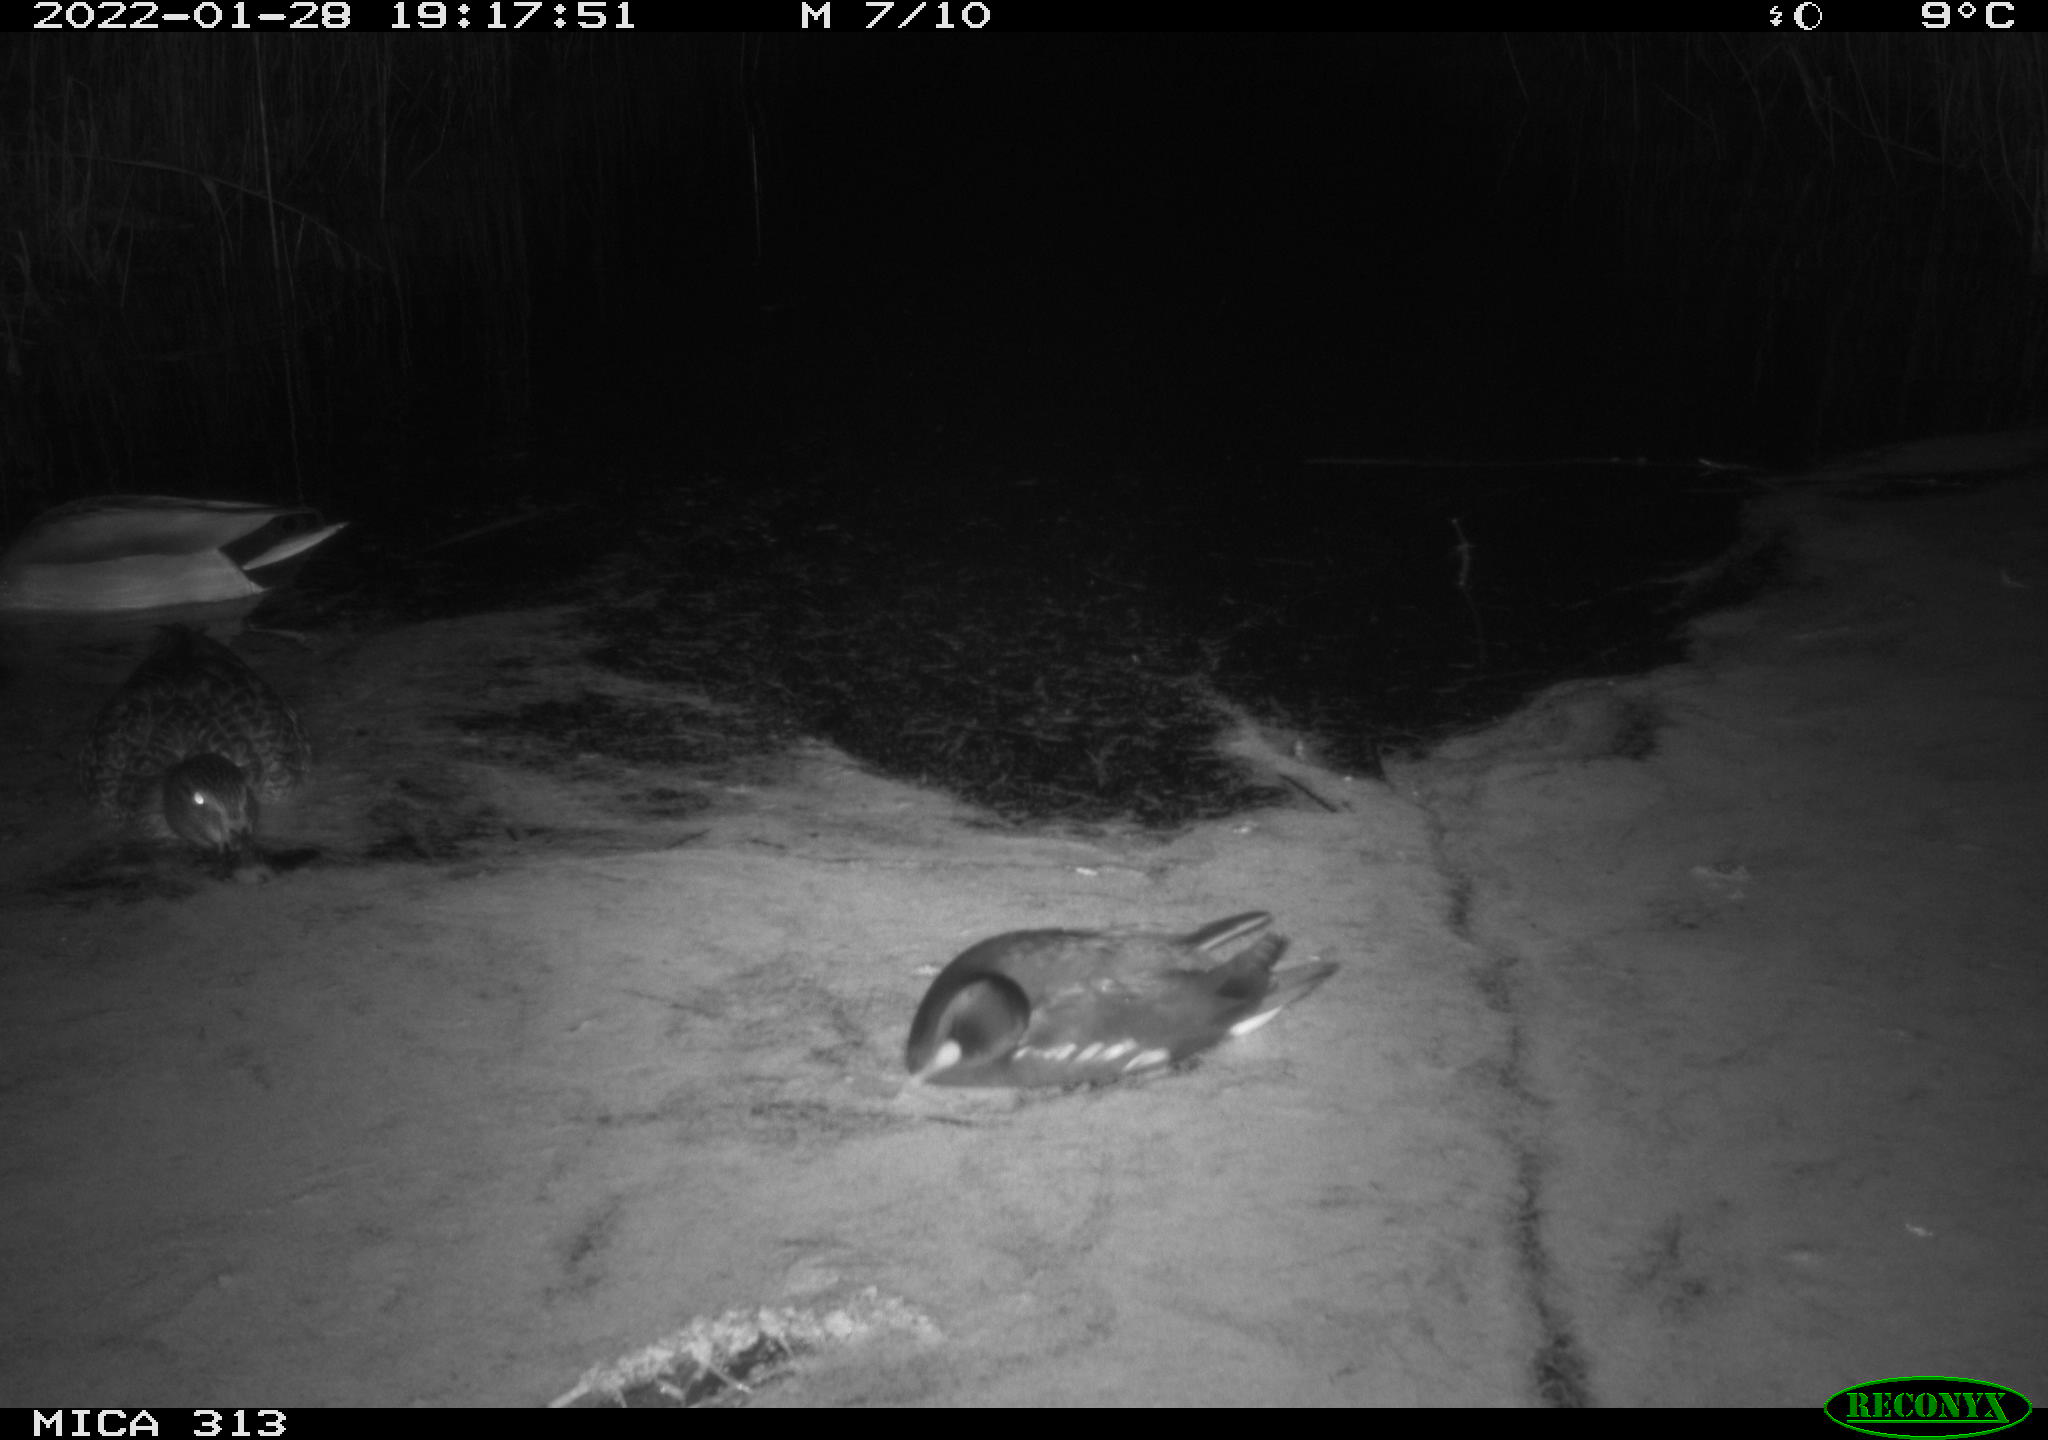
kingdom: Animalia
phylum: Chordata
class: Aves
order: Gruiformes
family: Rallidae
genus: Gallinula
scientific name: Gallinula chloropus
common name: Common moorhen
